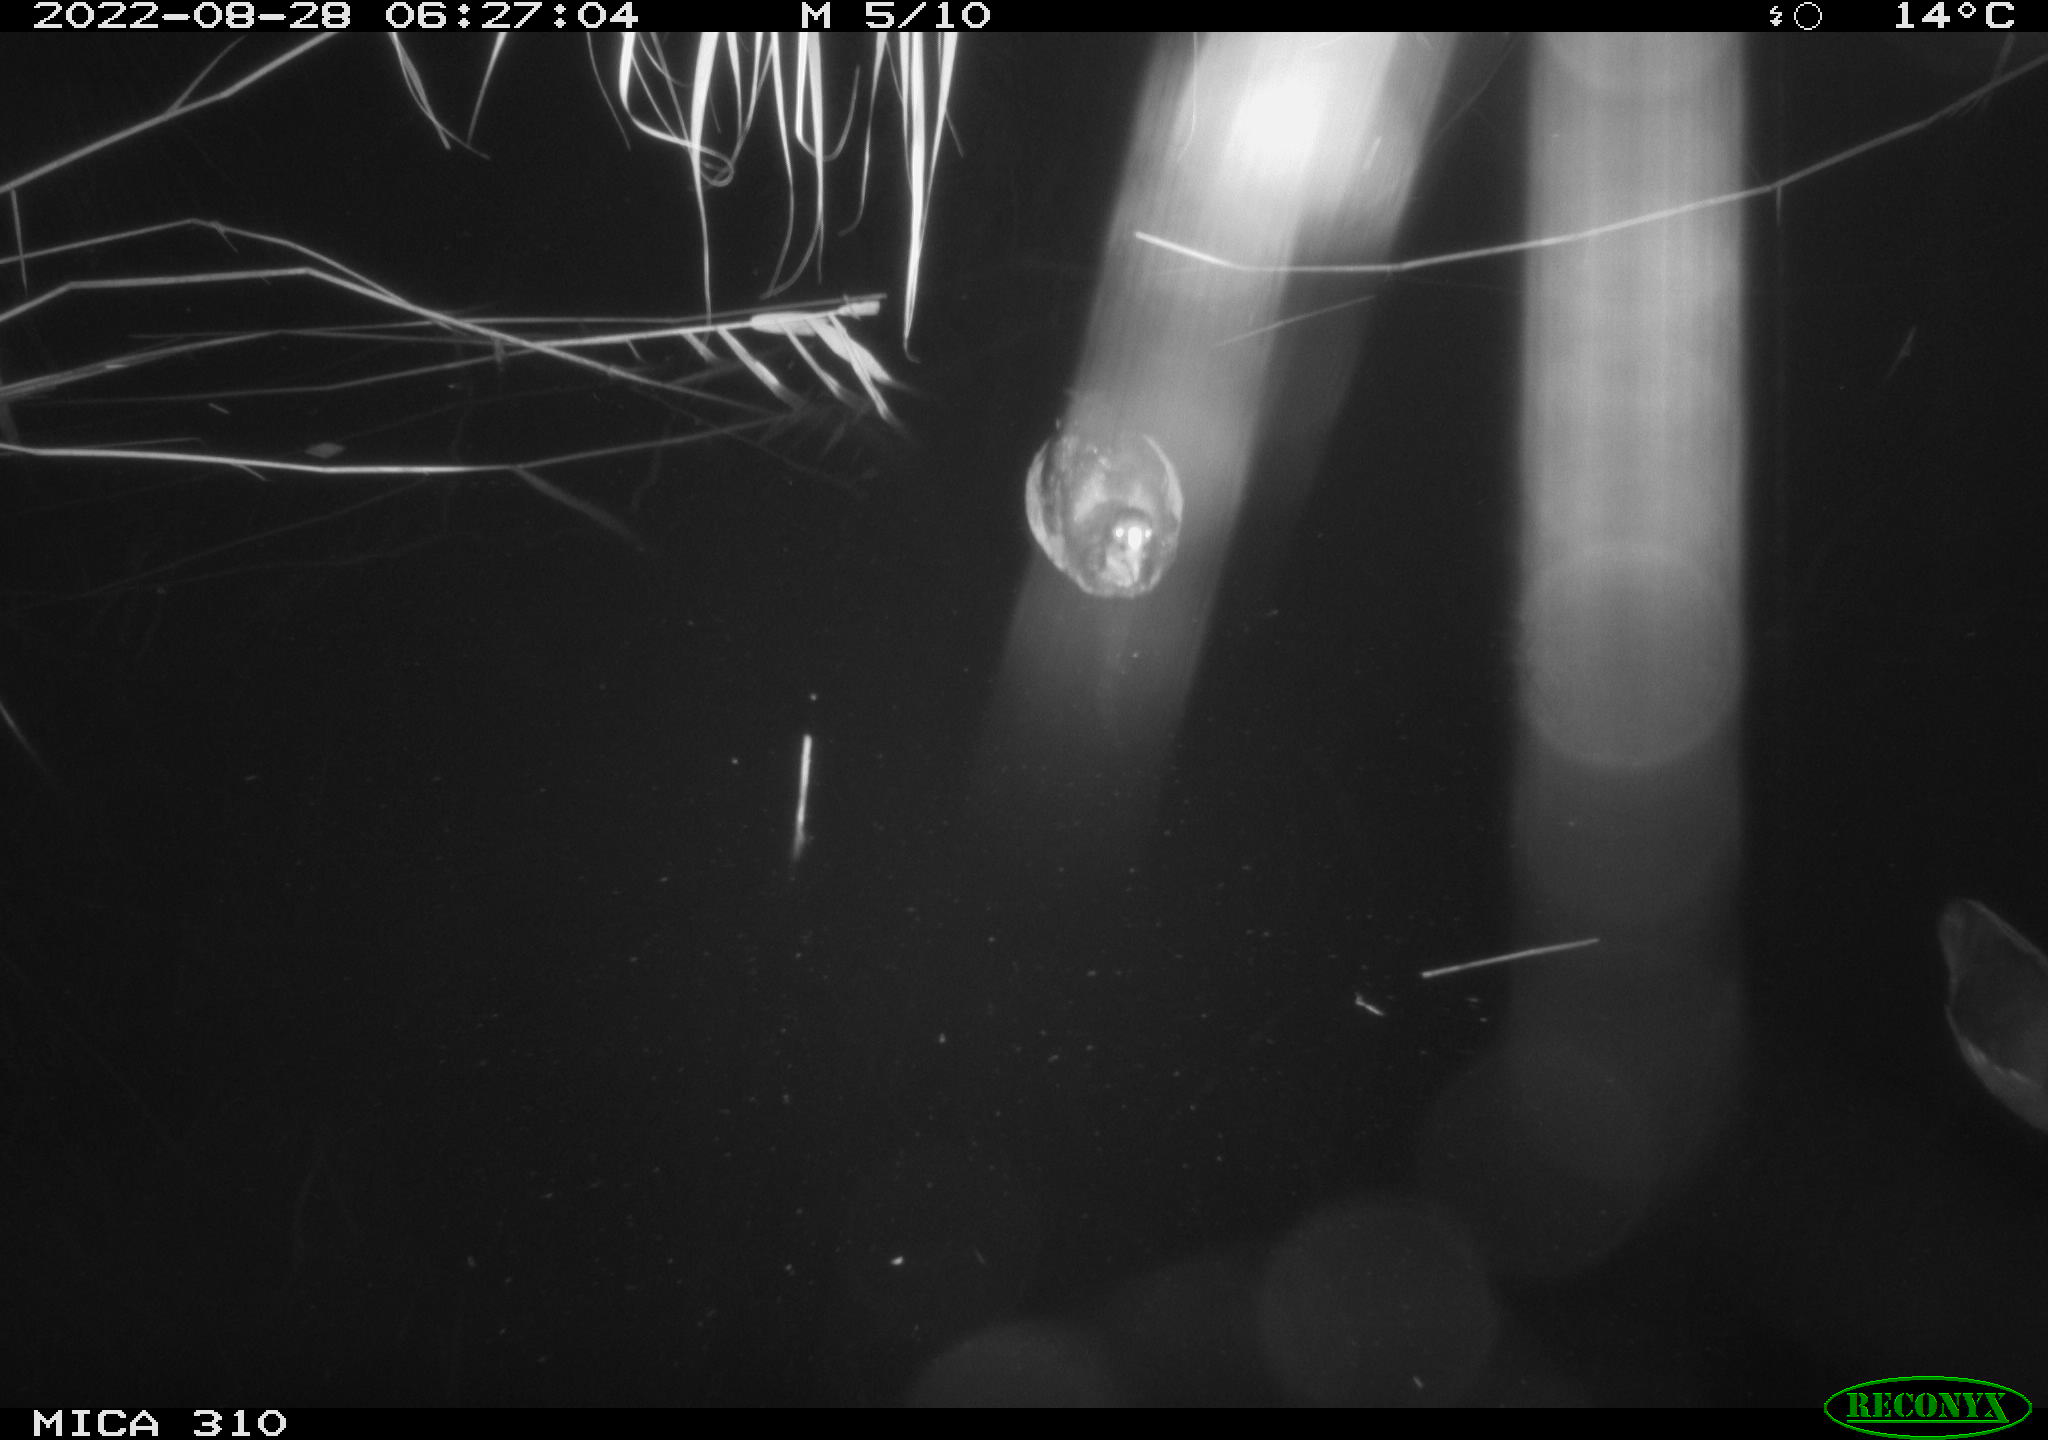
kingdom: Animalia
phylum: Chordata
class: Aves
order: Gruiformes
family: Rallidae
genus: Gallinula
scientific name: Gallinula chloropus
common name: Common moorhen
